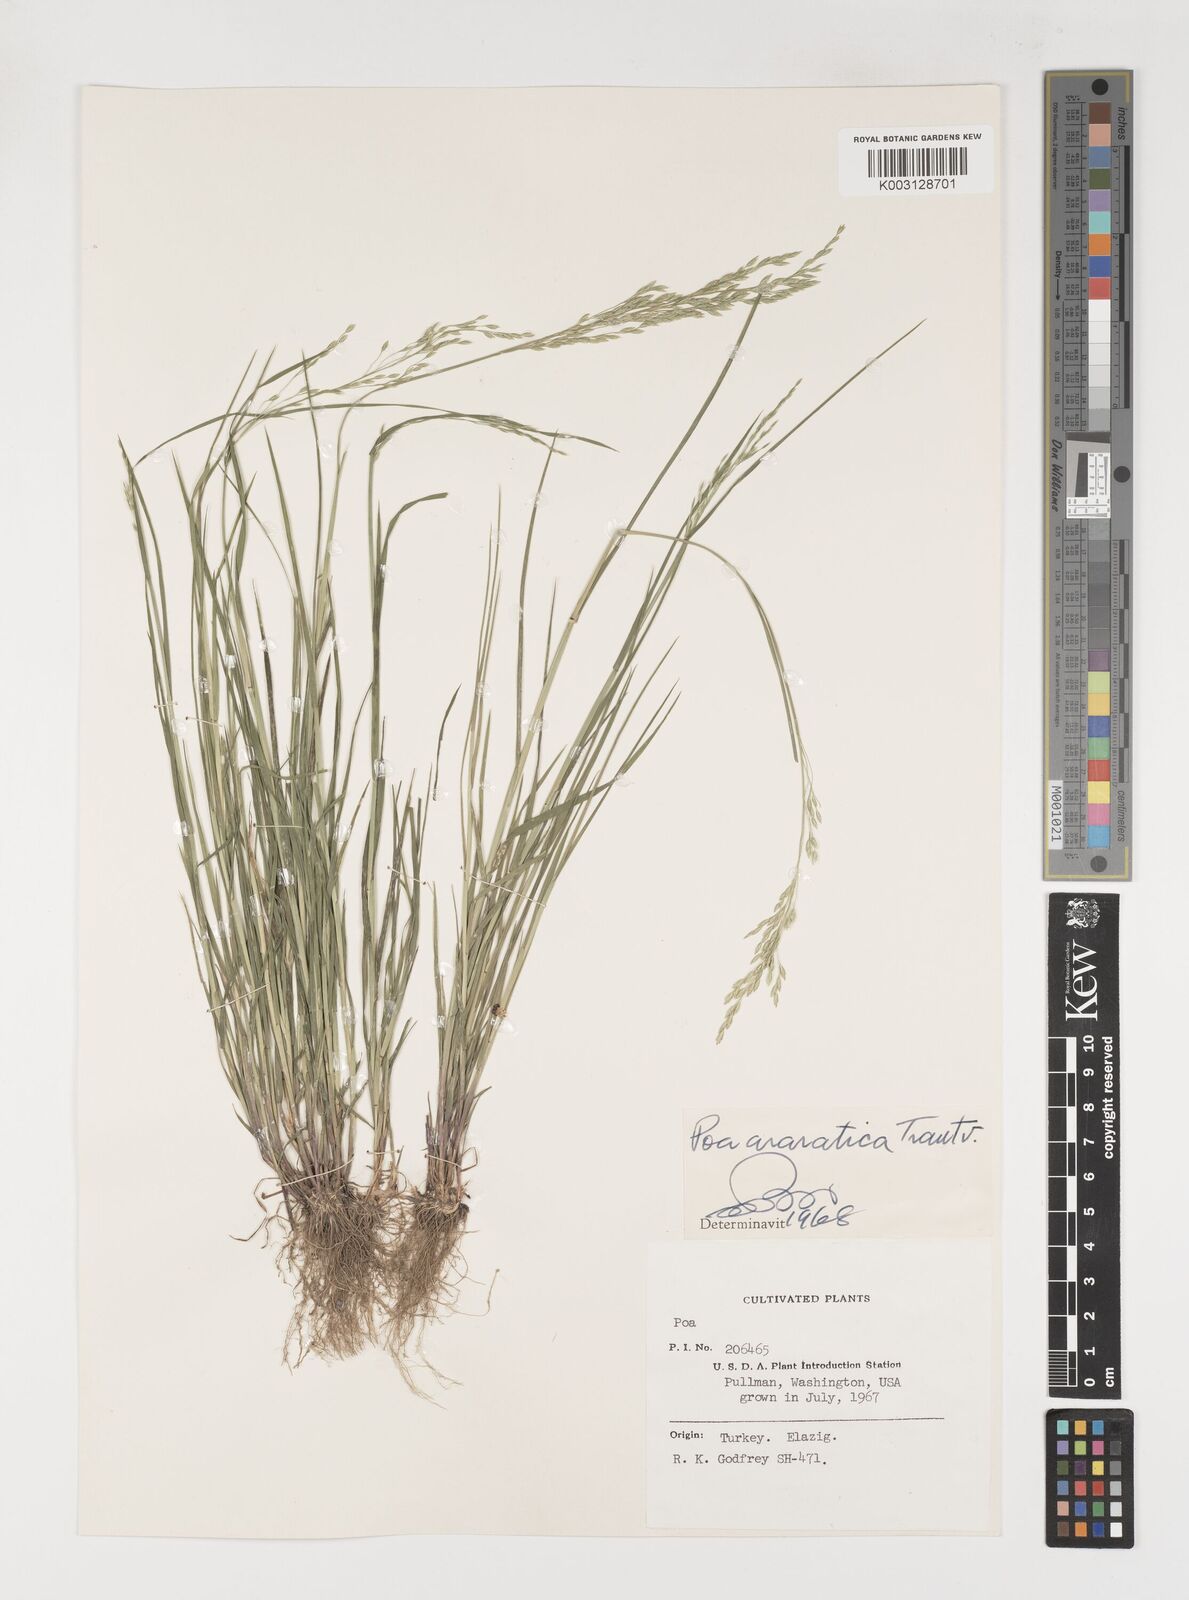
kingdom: Plantae
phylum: Tracheophyta
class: Liliopsida
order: Poales
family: Poaceae
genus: Poa
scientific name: Poa araratica
